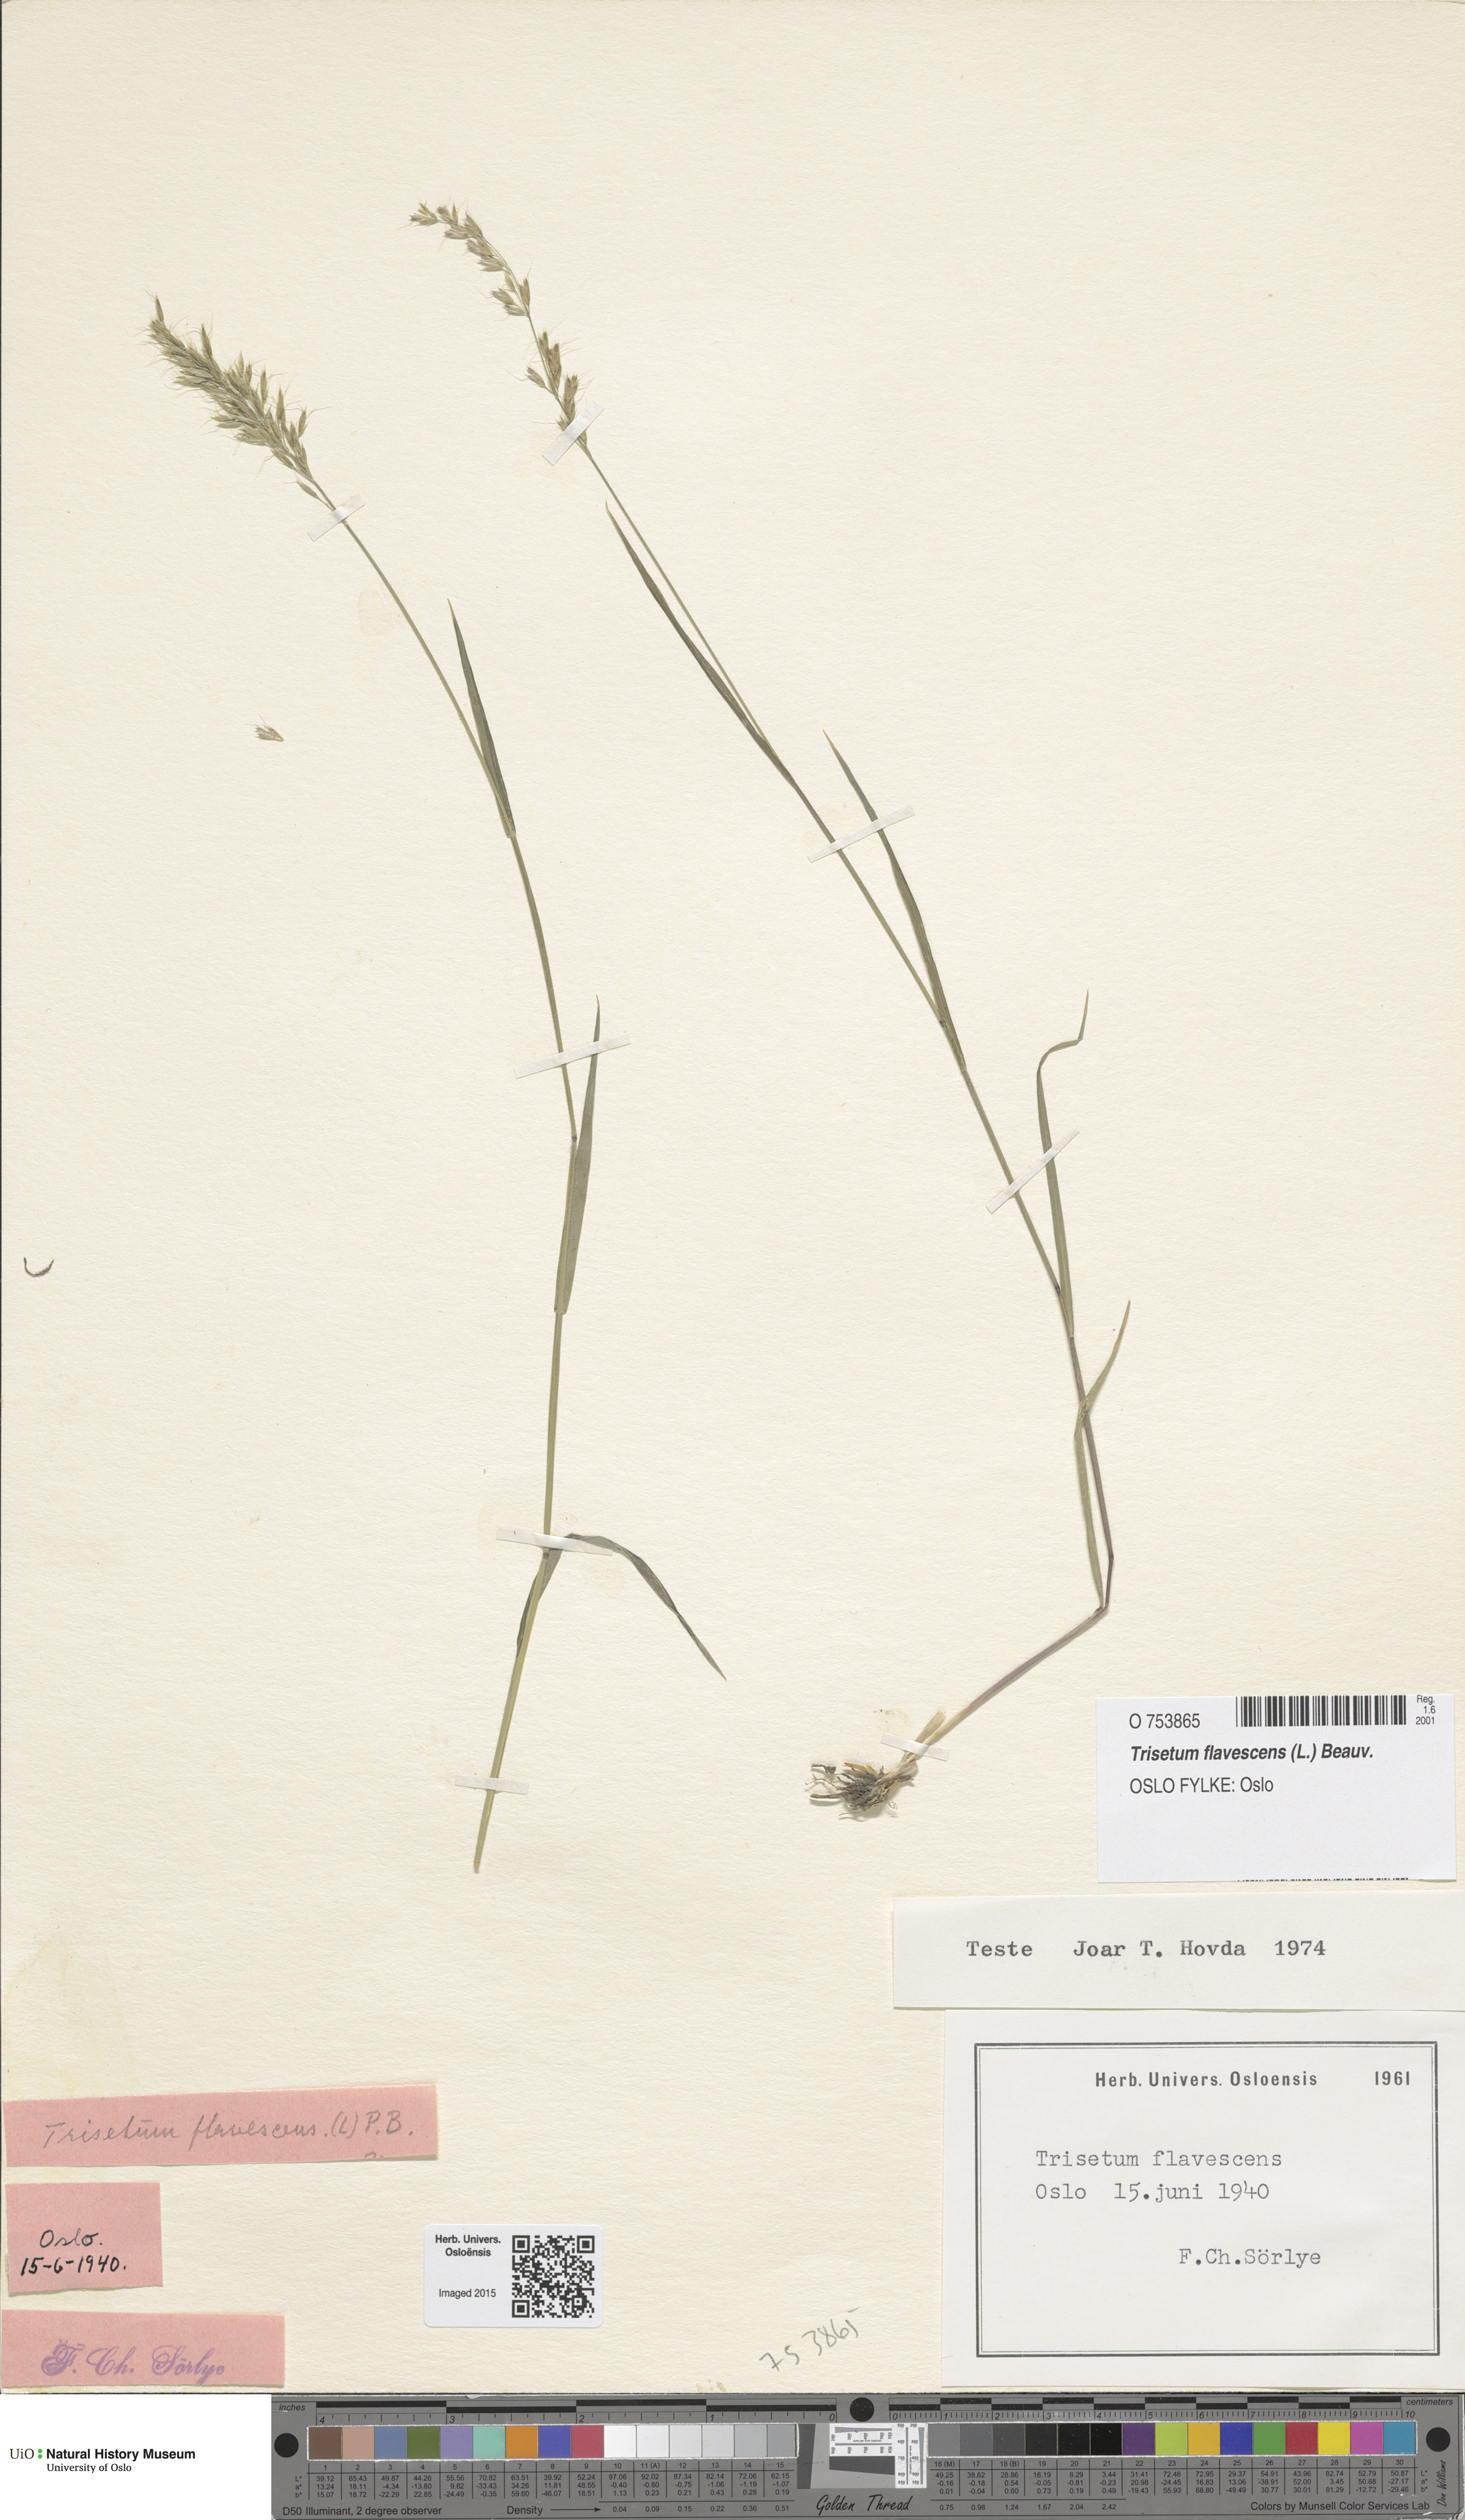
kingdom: Plantae
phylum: Tracheophyta
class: Liliopsida
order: Poales
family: Poaceae
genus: Trisetum
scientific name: Trisetum flavescens
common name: Yellow oat-grass
